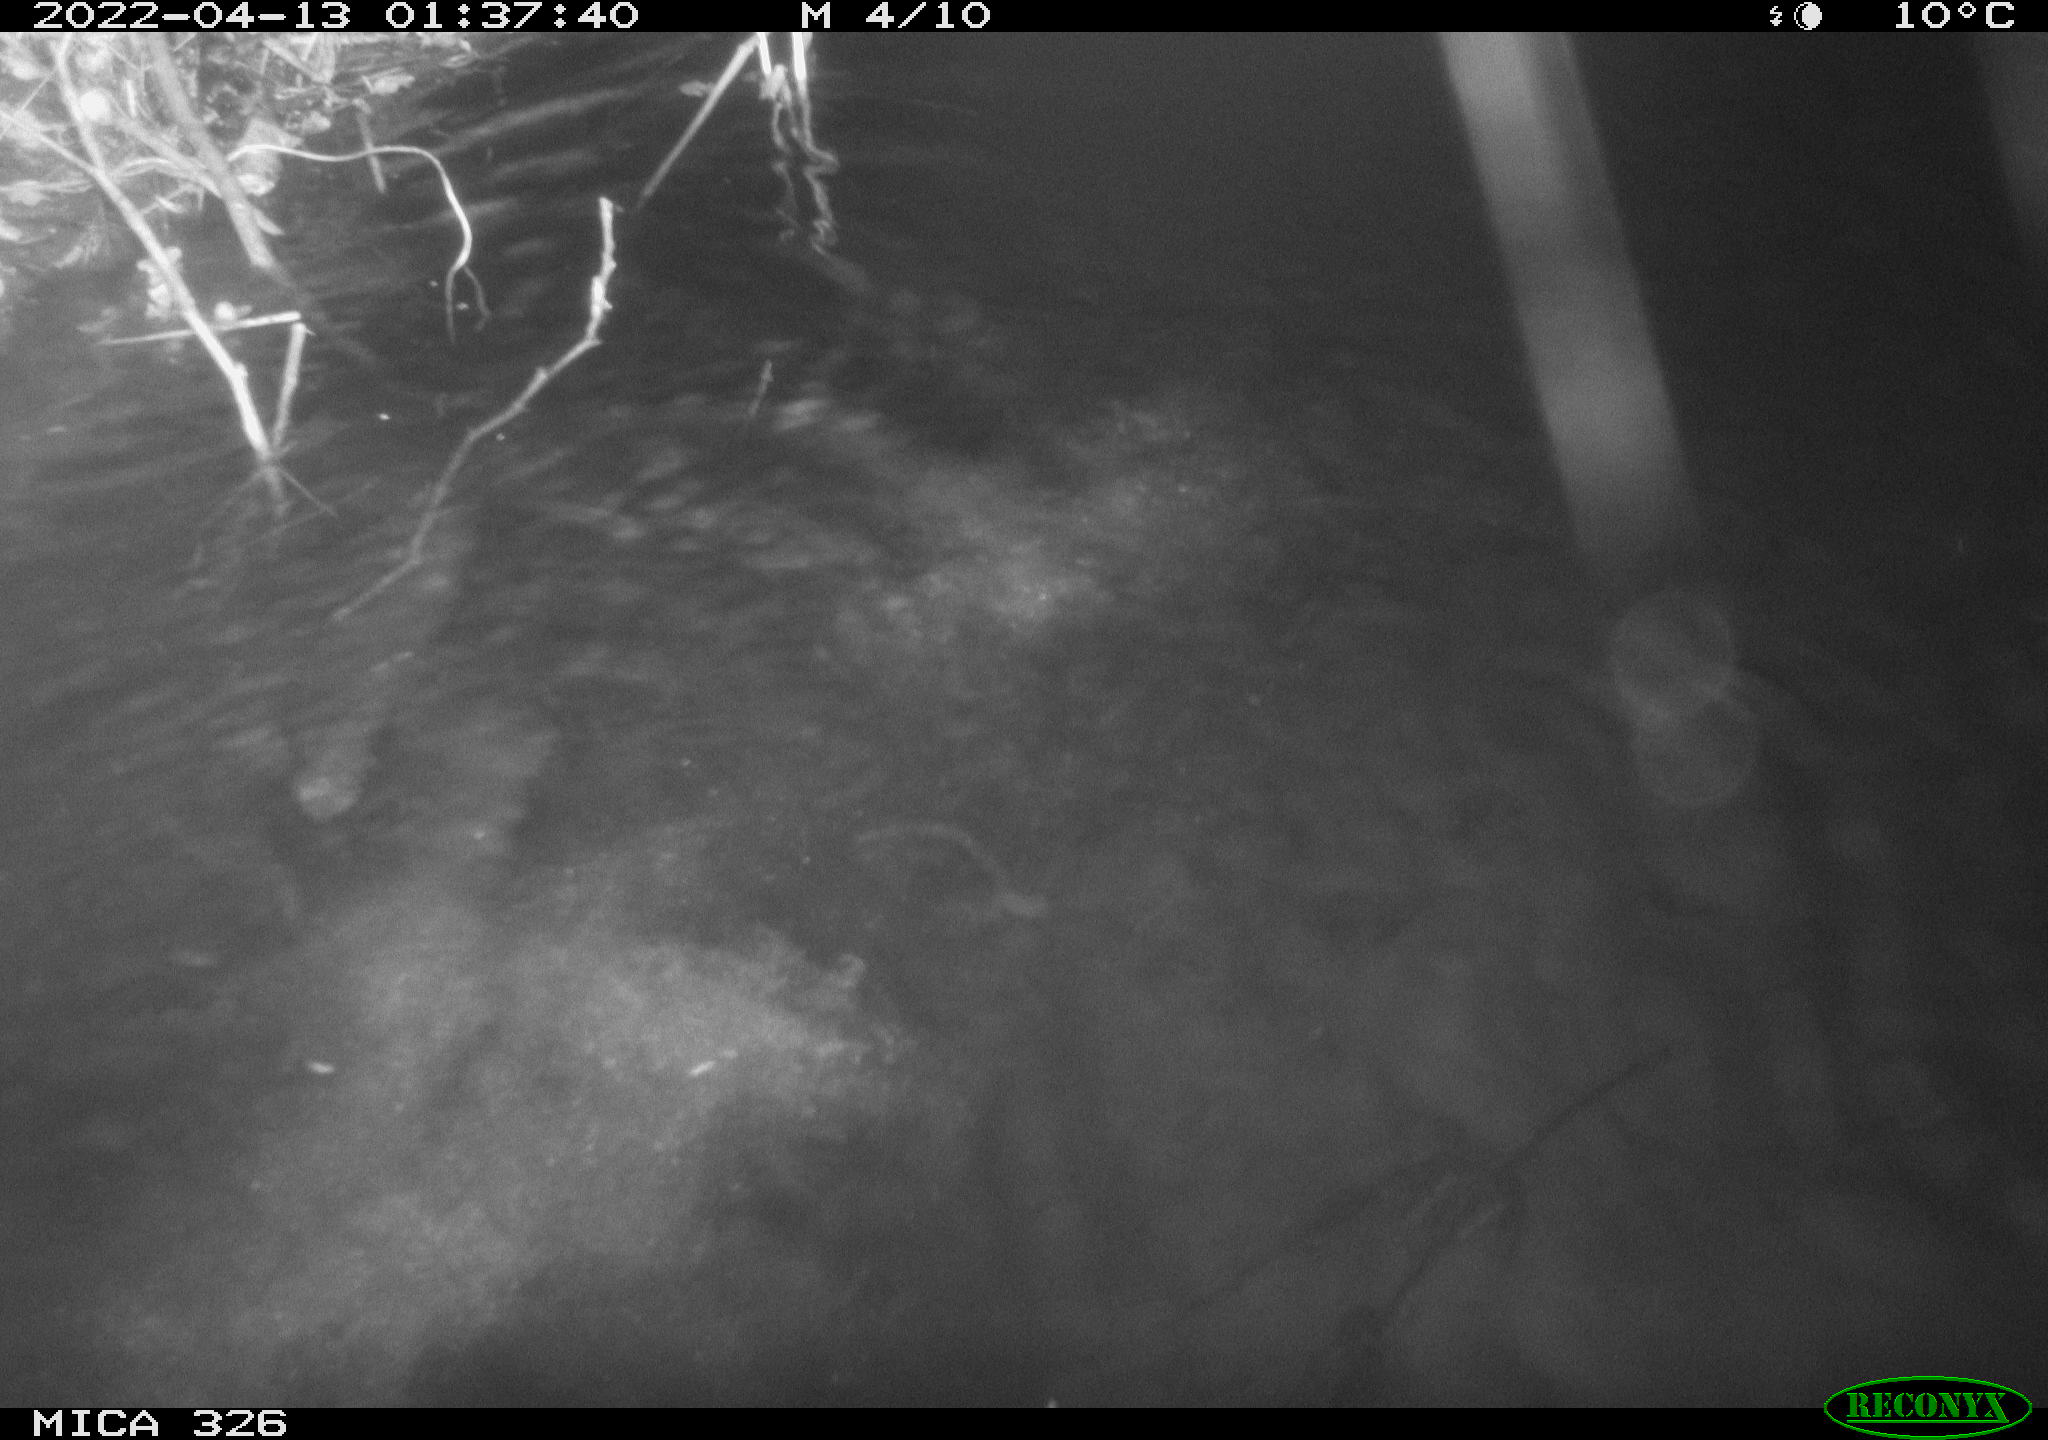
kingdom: Animalia
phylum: Chordata
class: Mammalia
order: Rodentia
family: Cricetidae
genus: Ondatra
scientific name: Ondatra zibethicus
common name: Muskrat
